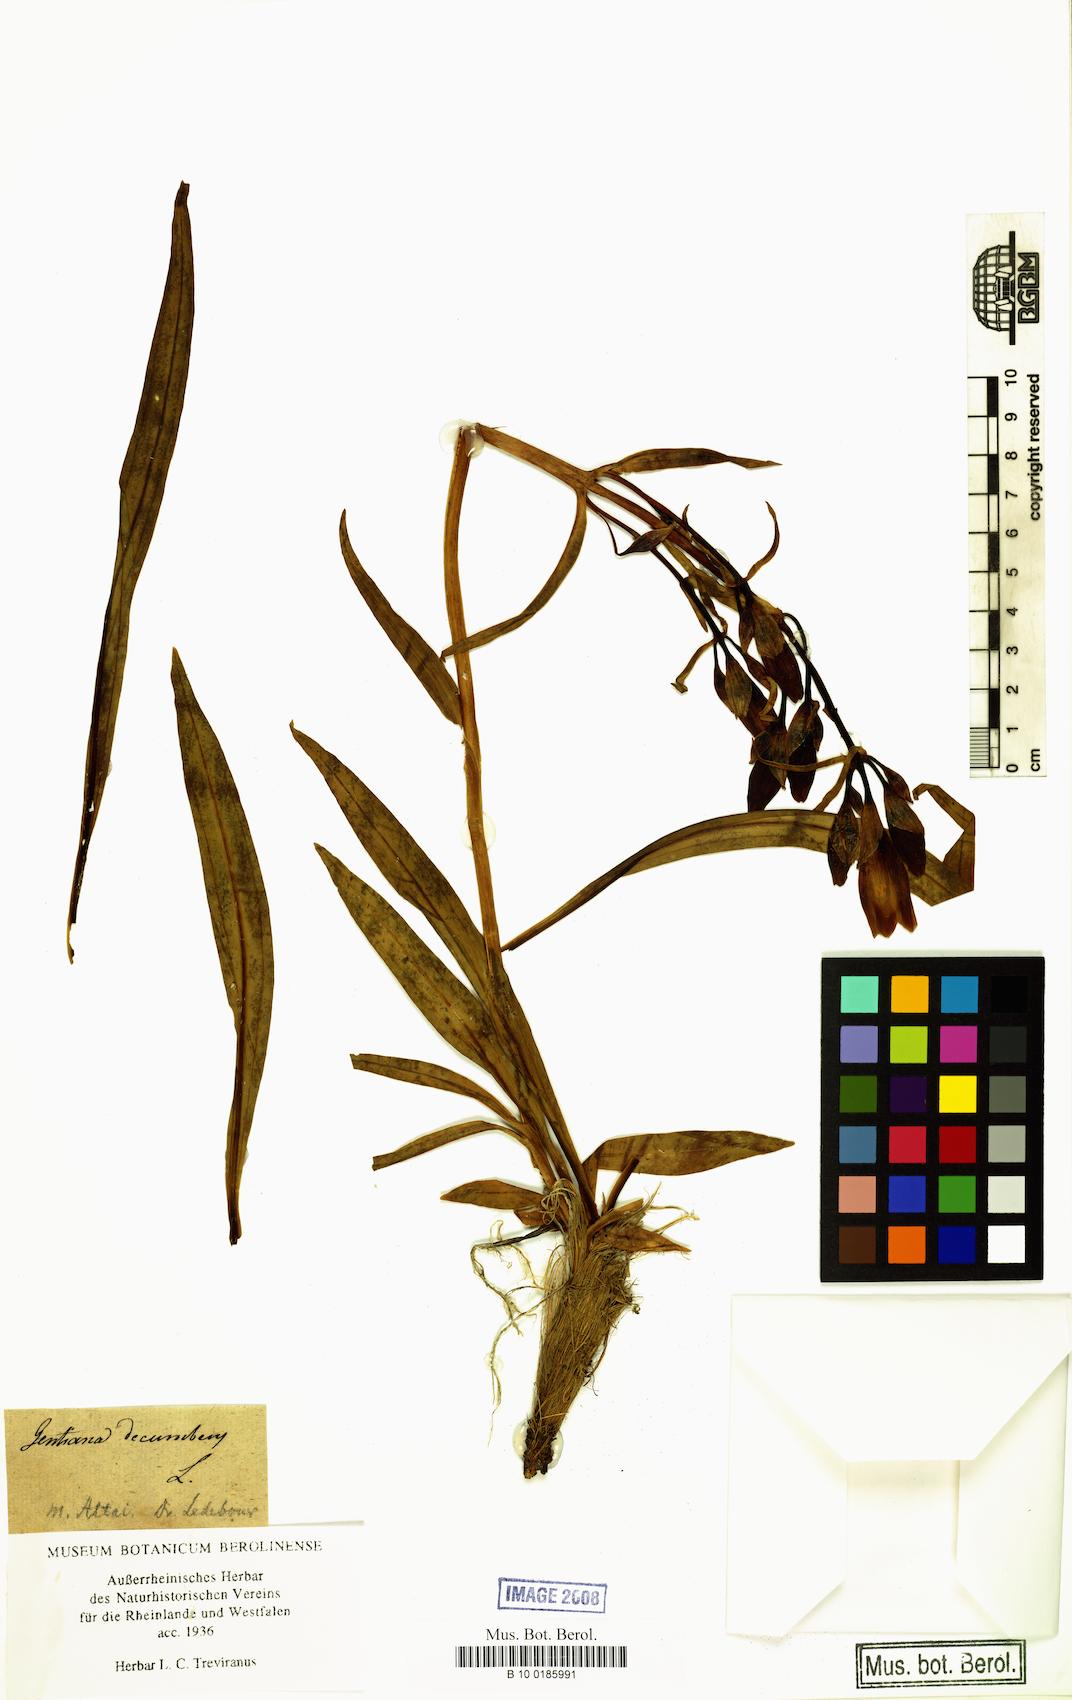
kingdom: Plantae
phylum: Tracheophyta
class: Magnoliopsida
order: Gentianales
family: Gentianaceae
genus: Gentiana
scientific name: Gentiana decumbens
